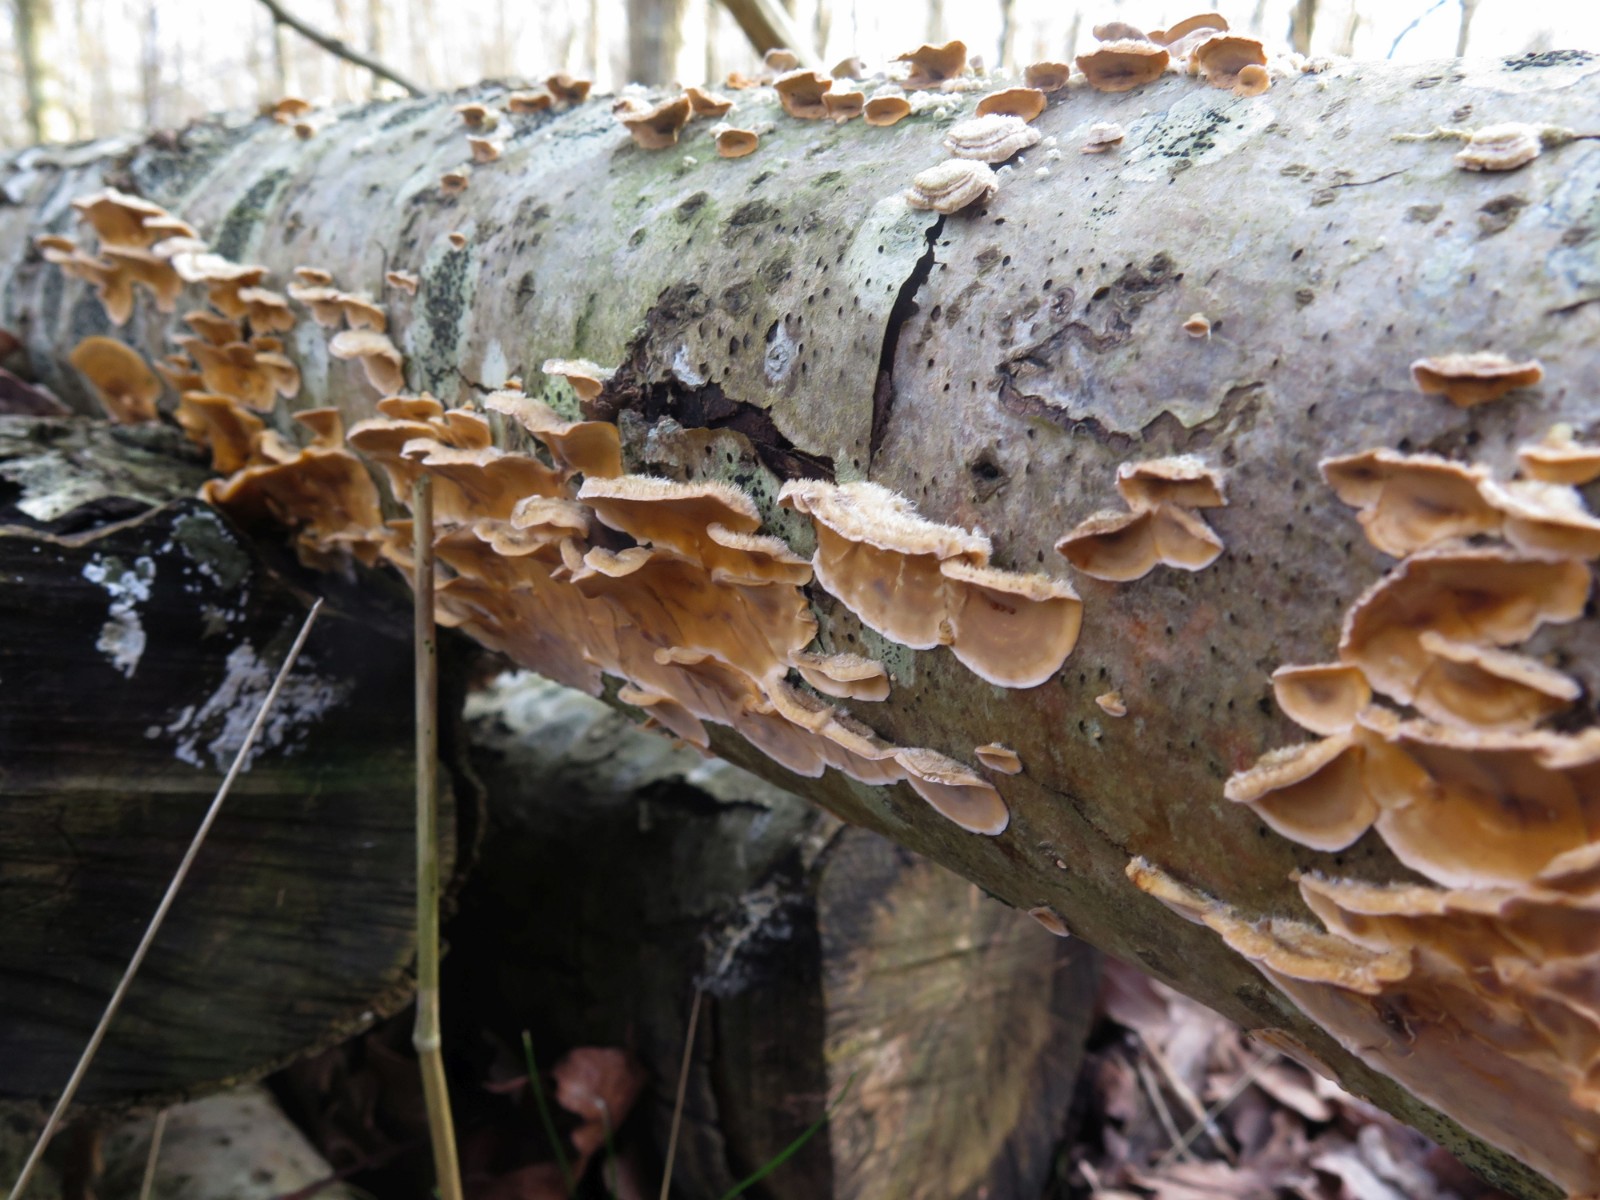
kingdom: Fungi
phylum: Basidiomycota
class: Agaricomycetes
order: Russulales
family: Stereaceae
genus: Stereum
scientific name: Stereum hirsutum
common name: håret lædersvamp
